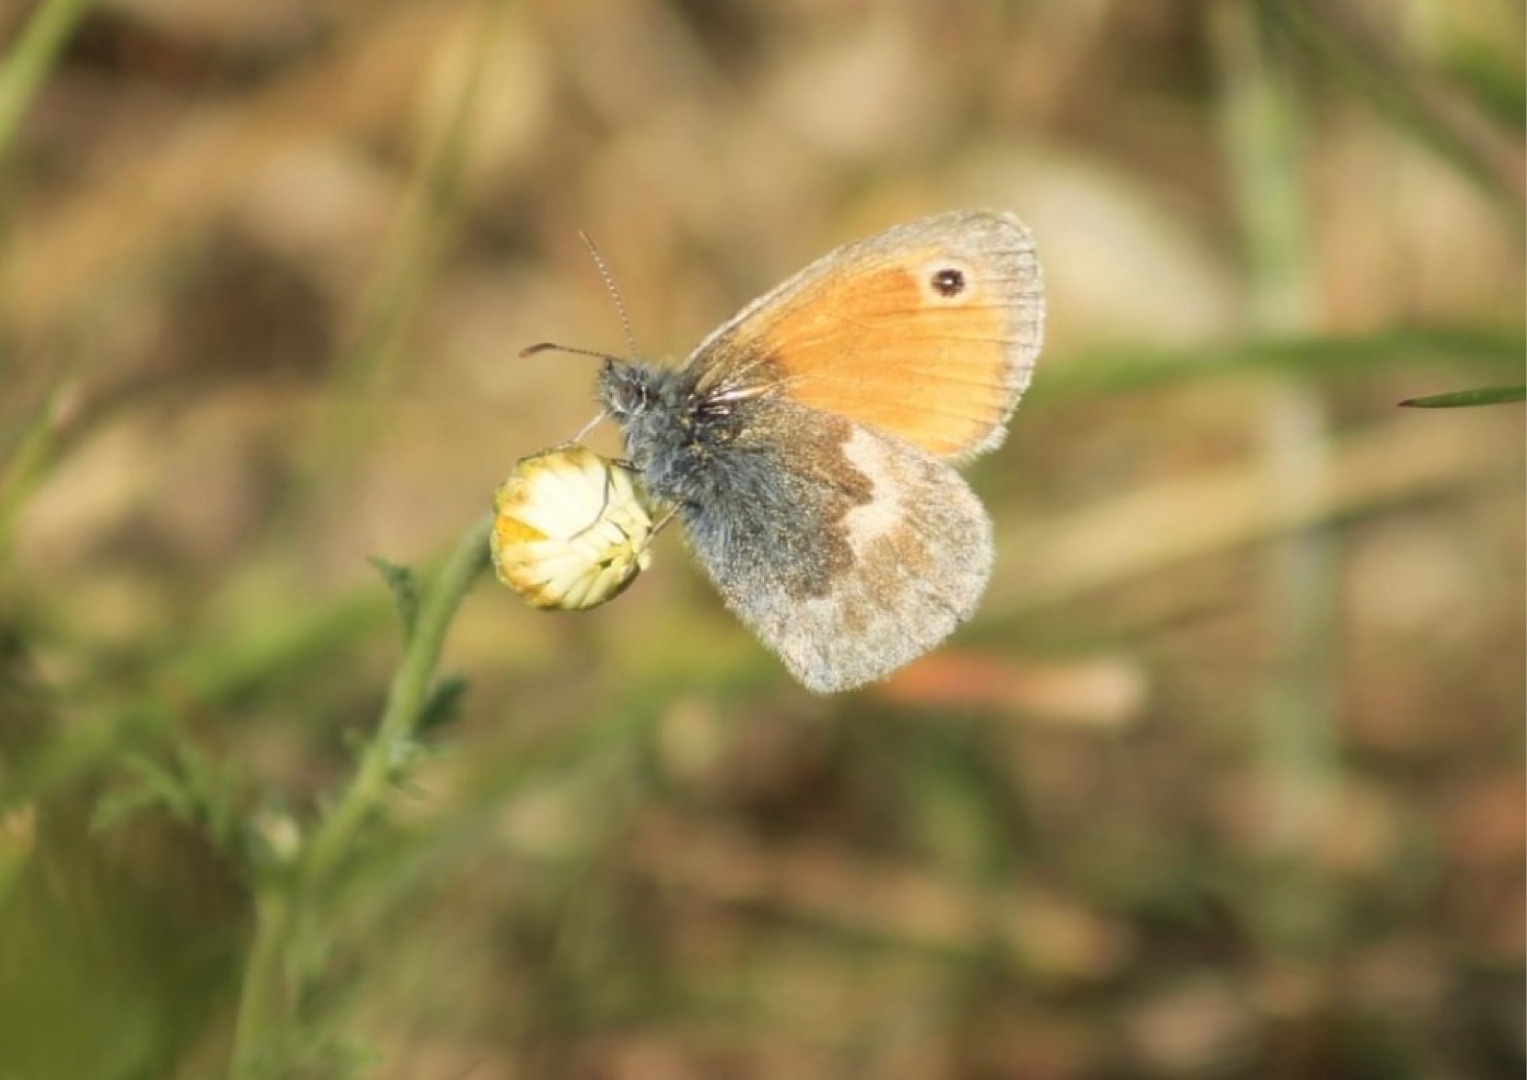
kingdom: Animalia
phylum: Arthropoda
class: Insecta
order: Lepidoptera
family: Nymphalidae
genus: Coenonympha
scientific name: Coenonympha pamphilus
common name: Okkergul randøje
